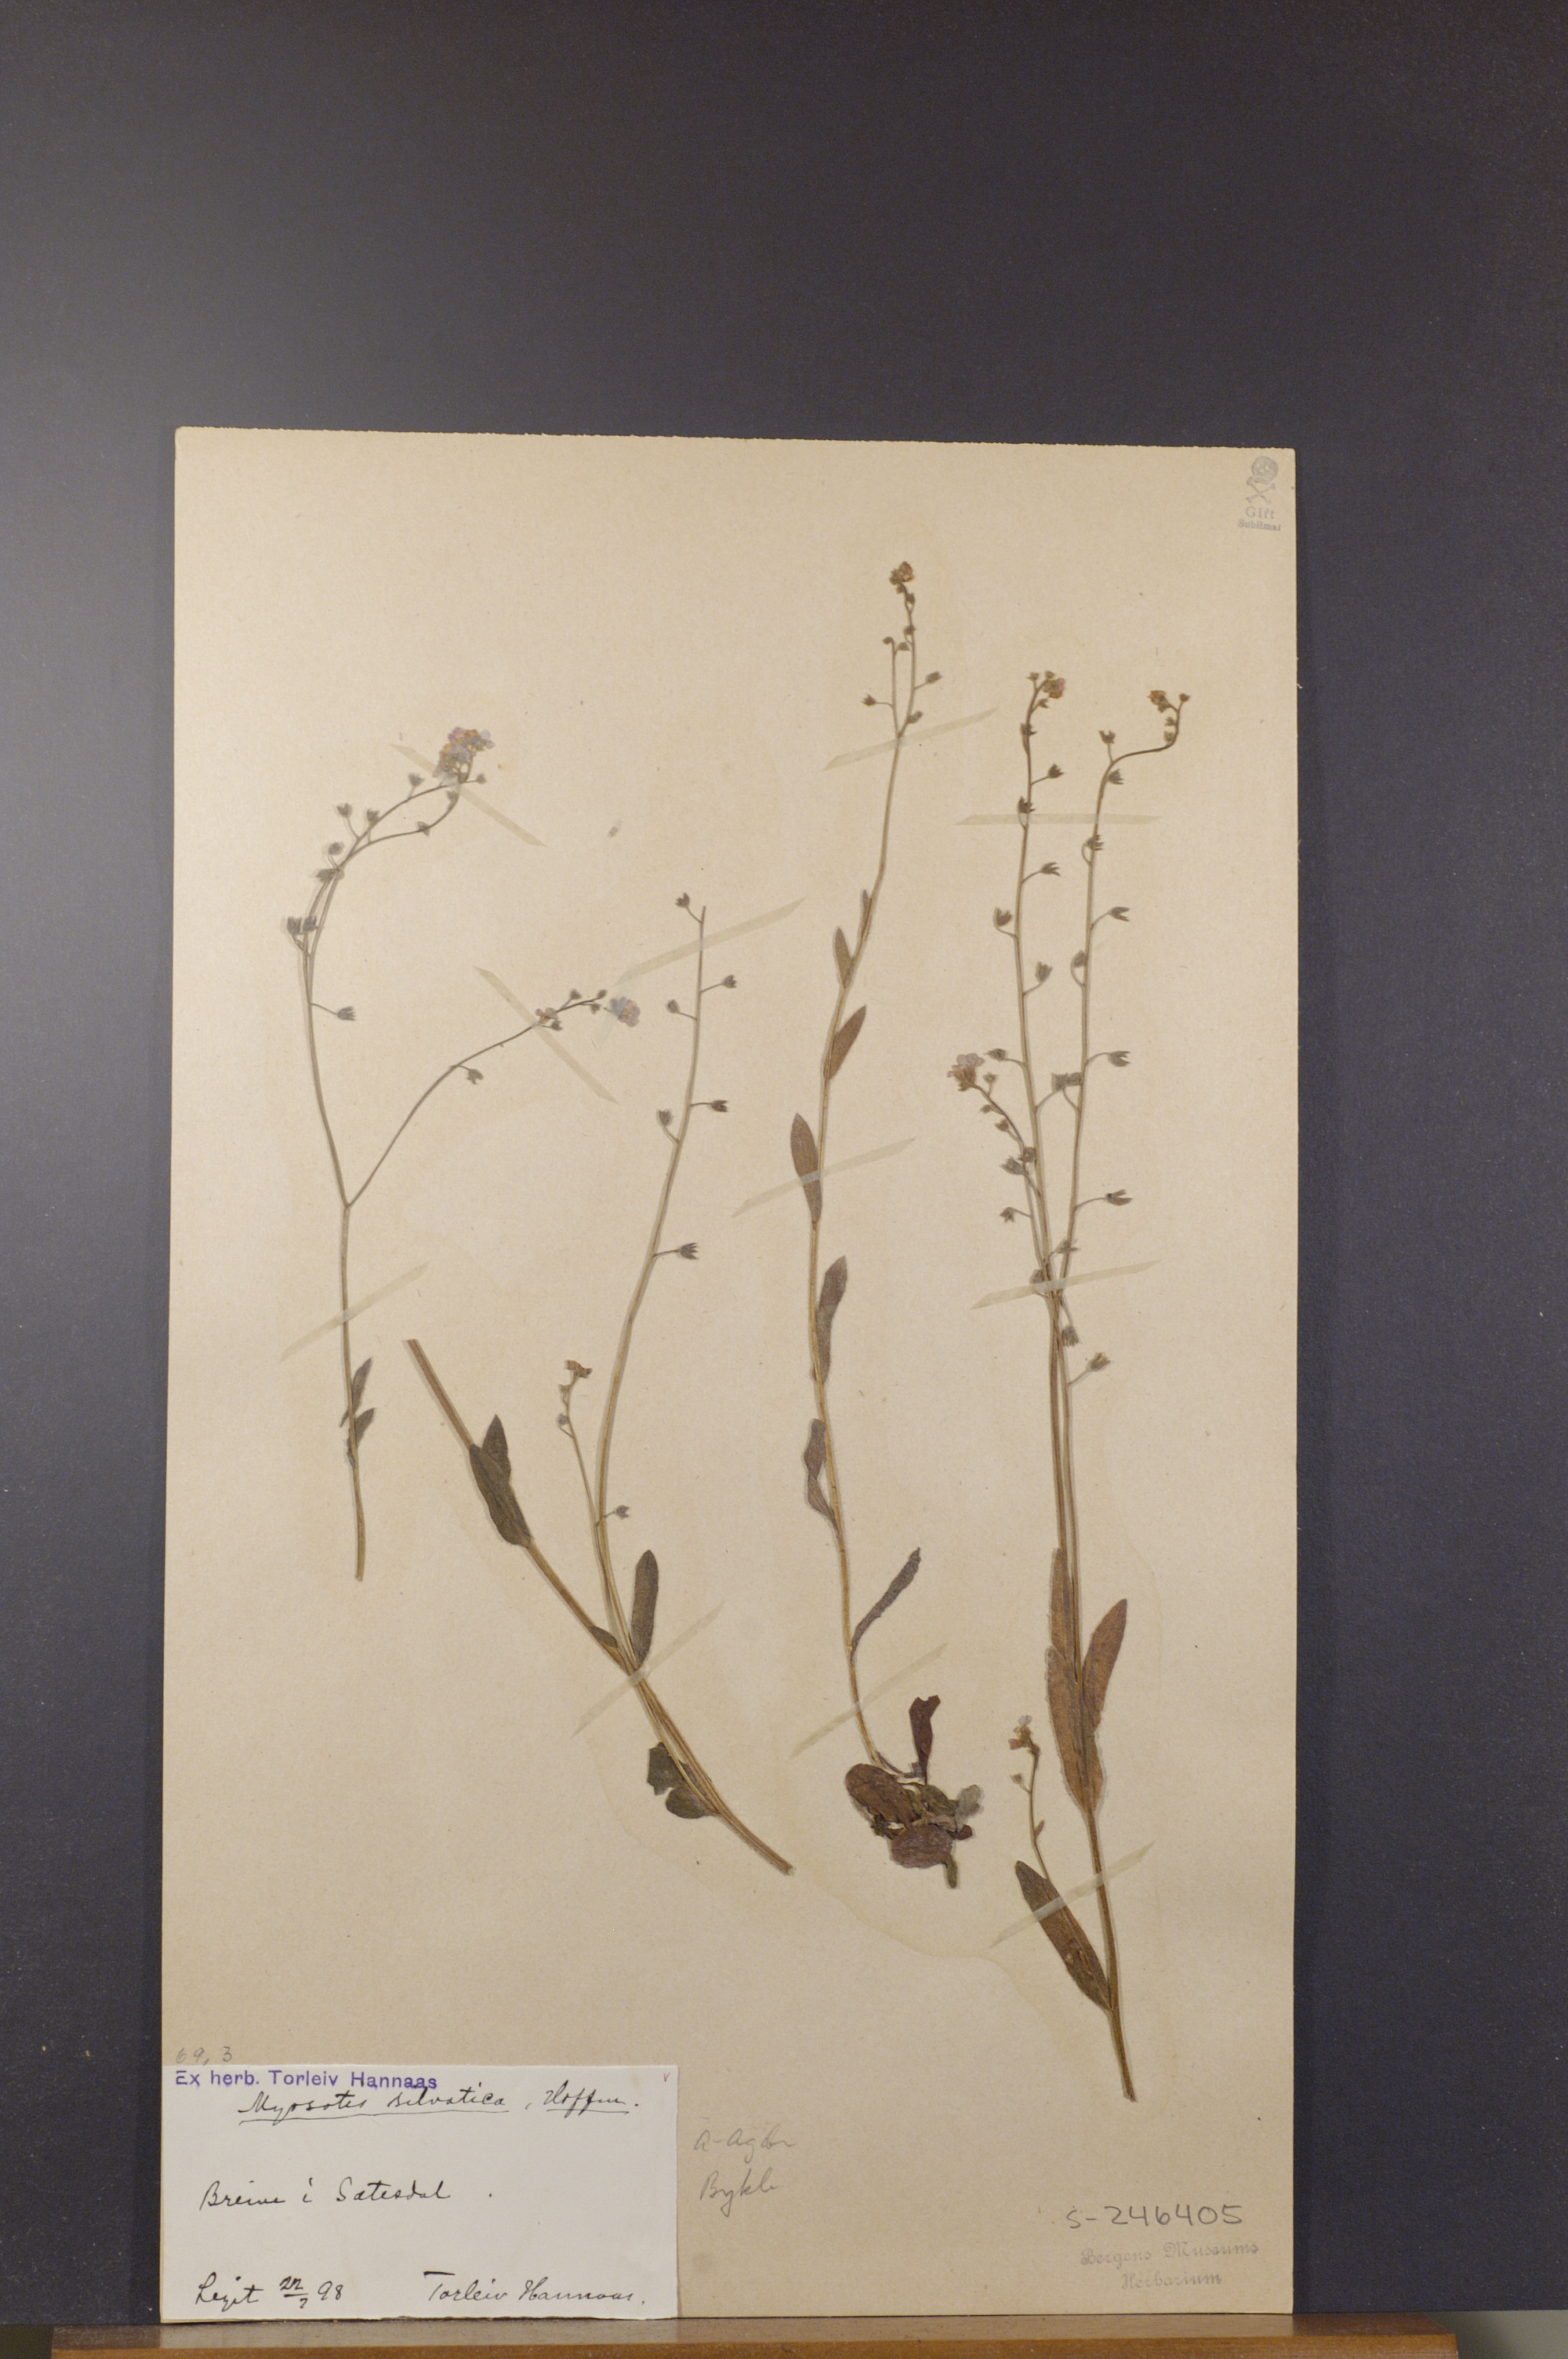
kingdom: Plantae
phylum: Tracheophyta
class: Magnoliopsida
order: Boraginales
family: Boraginaceae
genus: Myosotis
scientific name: Myosotis decumbens
